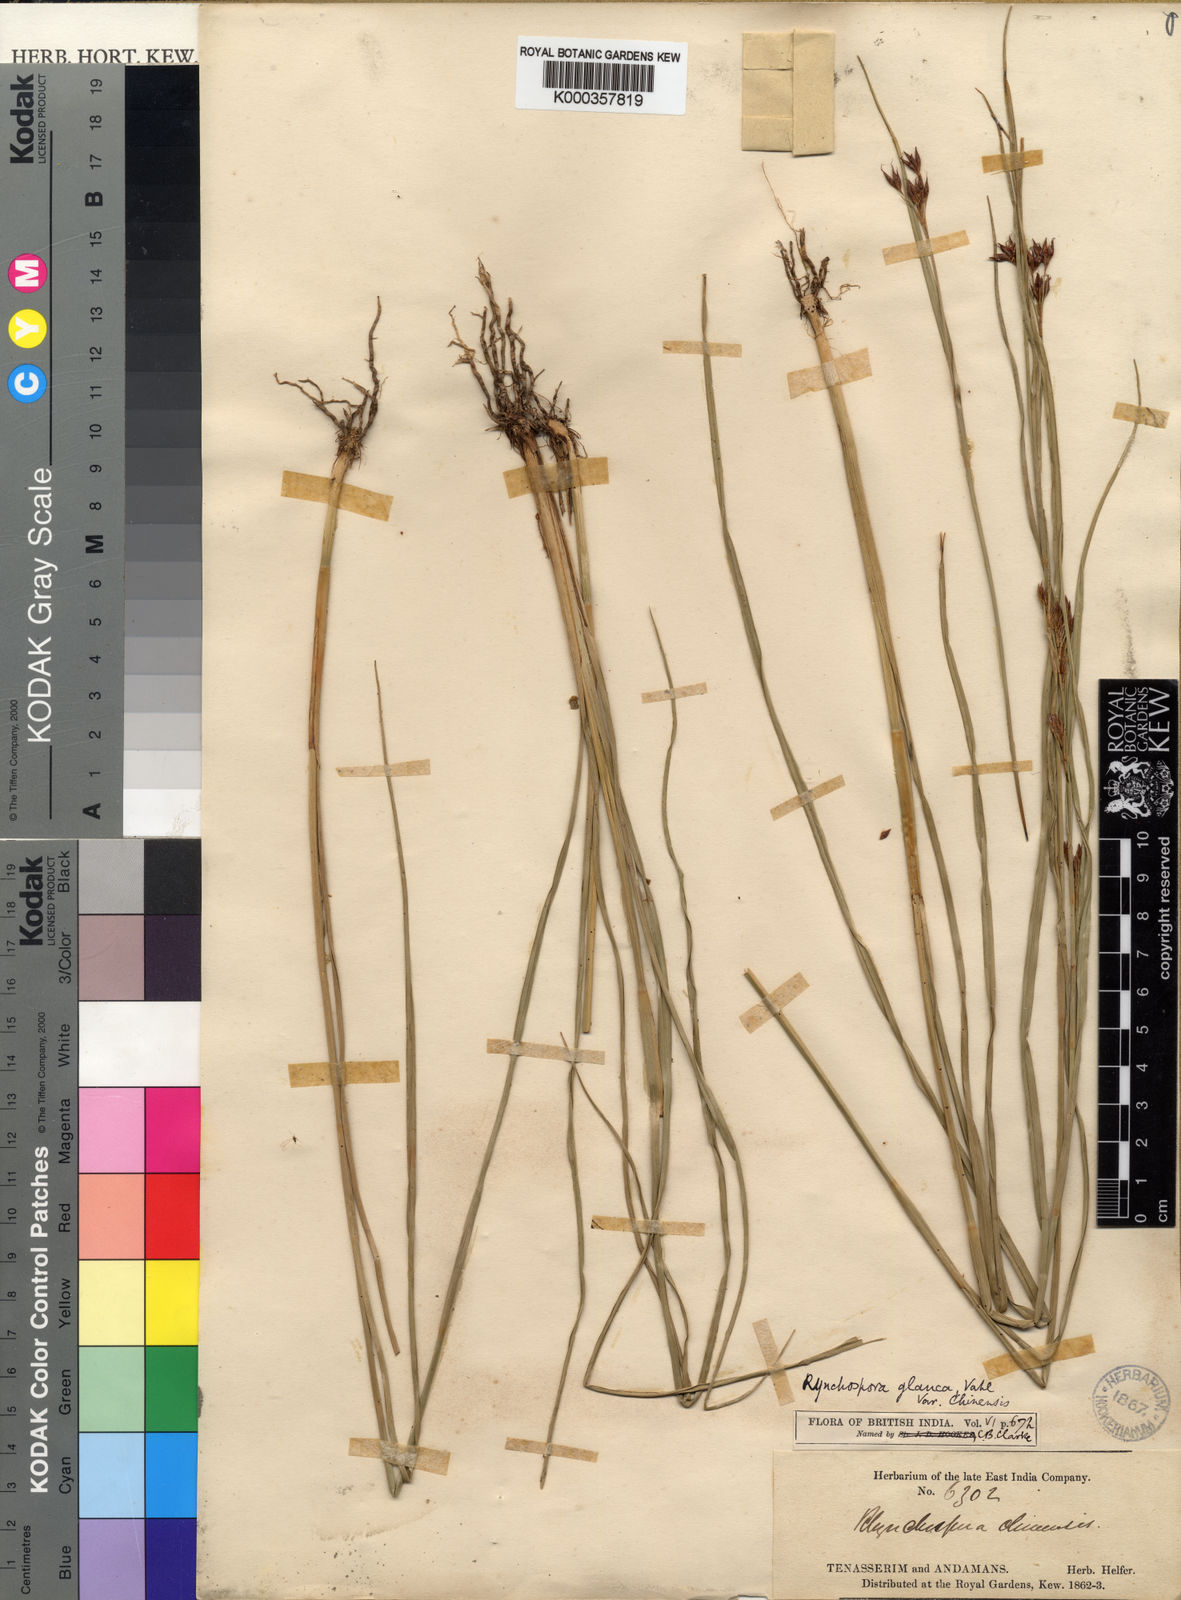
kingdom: Plantae
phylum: Tracheophyta
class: Liliopsida
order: Poales
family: Cyperaceae
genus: Rhynchospora
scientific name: Rhynchospora rugosa
